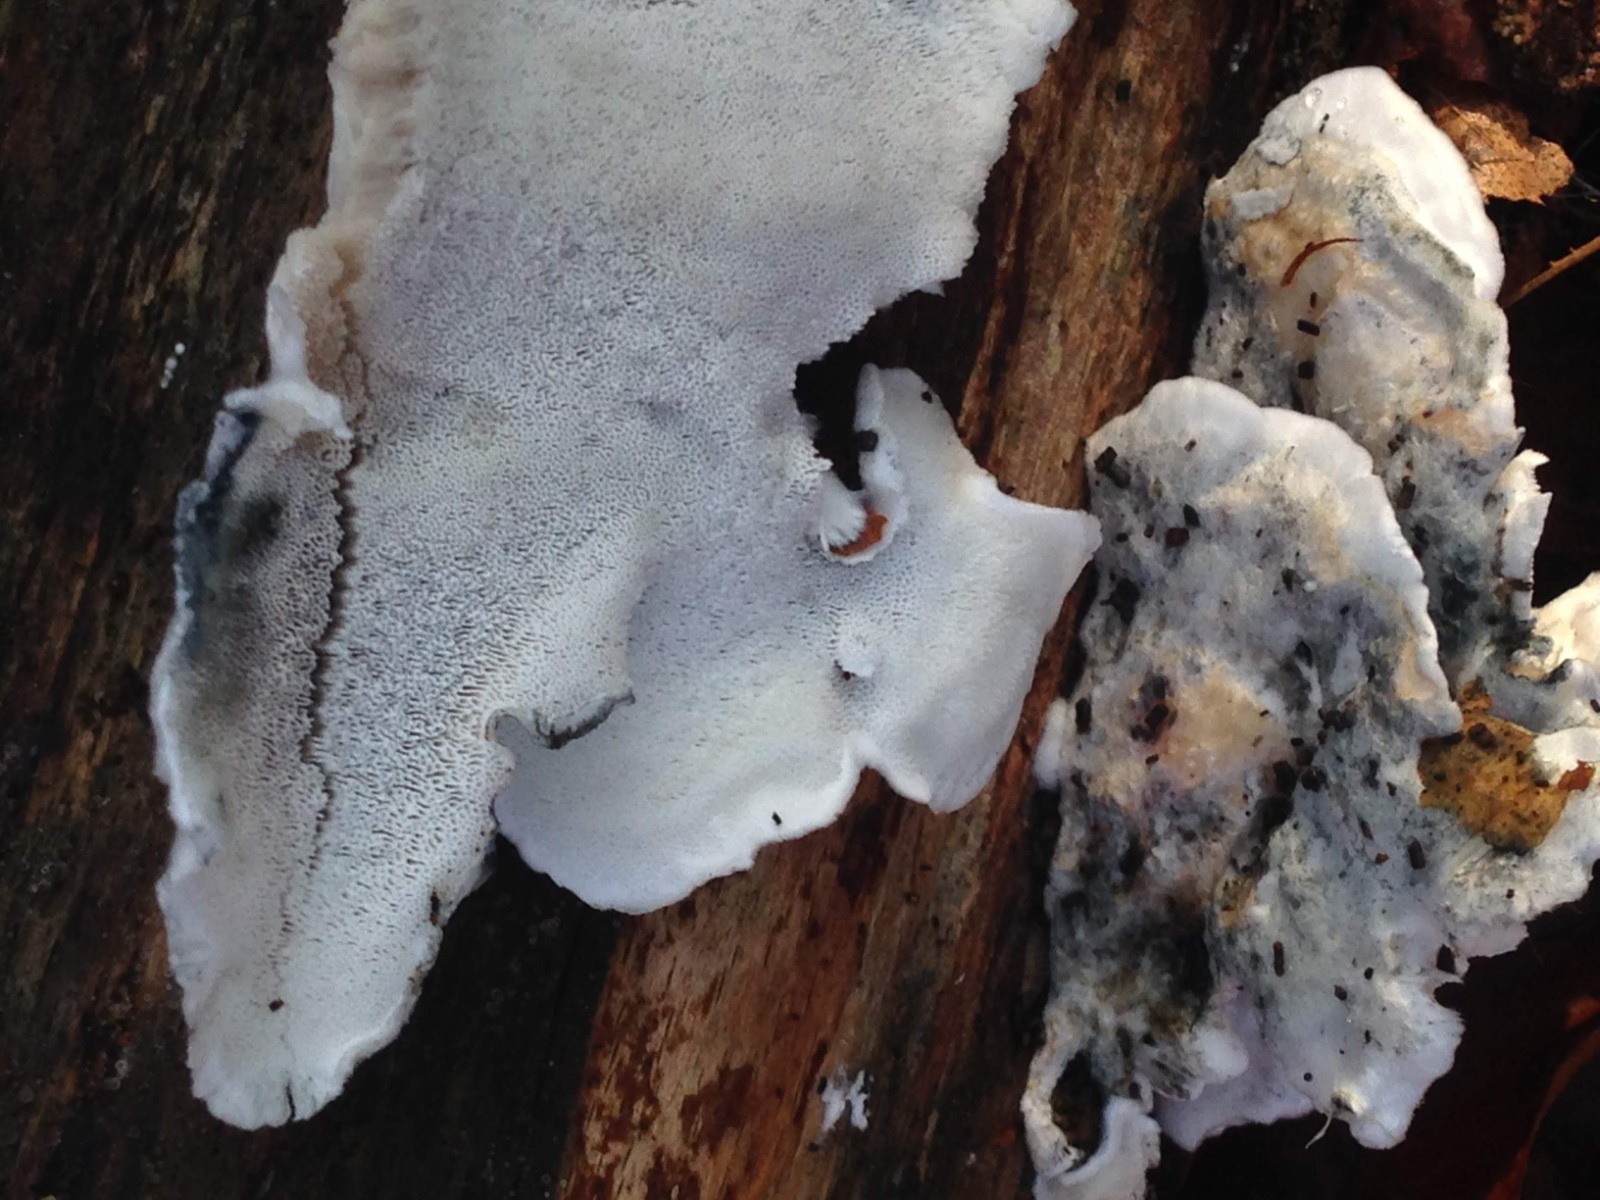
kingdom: Fungi
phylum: Basidiomycota
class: Agaricomycetes
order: Polyporales
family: Polyporaceae
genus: Cyanosporus
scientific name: Cyanosporus alni
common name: blegblå kødporesvamp
